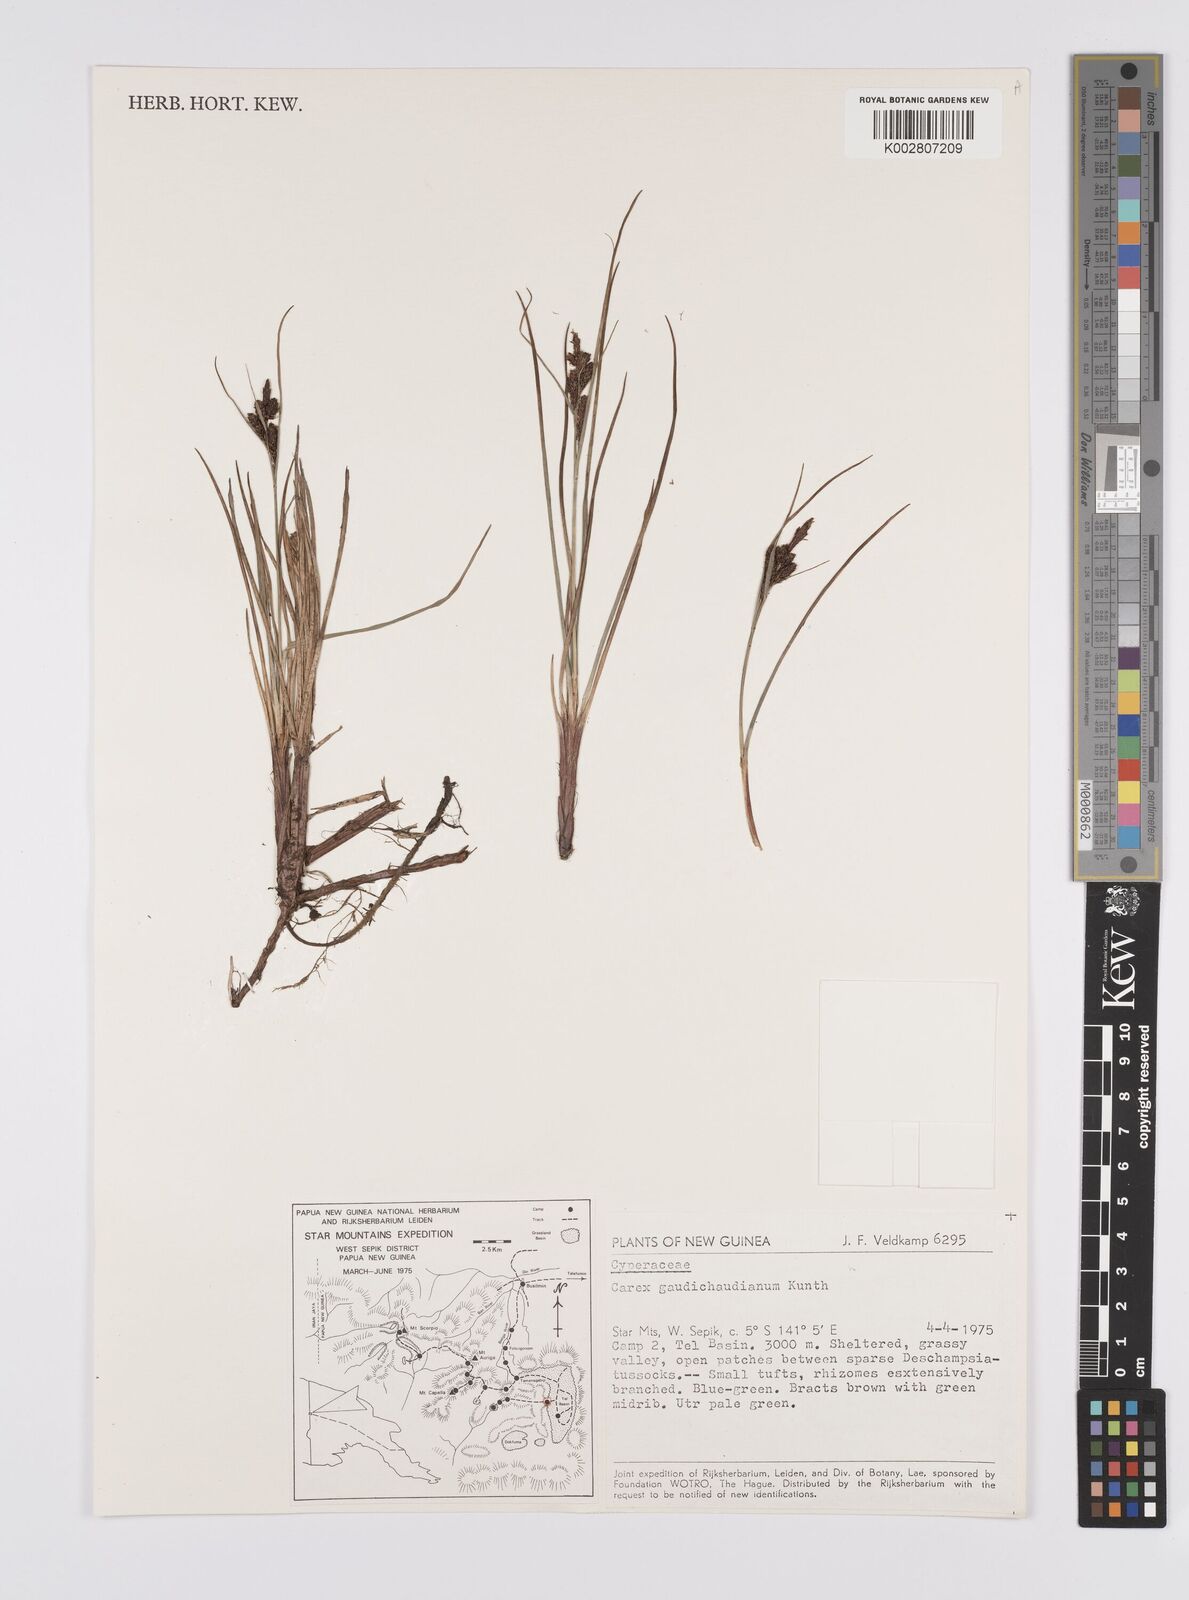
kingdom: Plantae
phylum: Tracheophyta
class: Liliopsida
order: Poales
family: Cyperaceae
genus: Carex
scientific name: Carex gaudichaudiana
